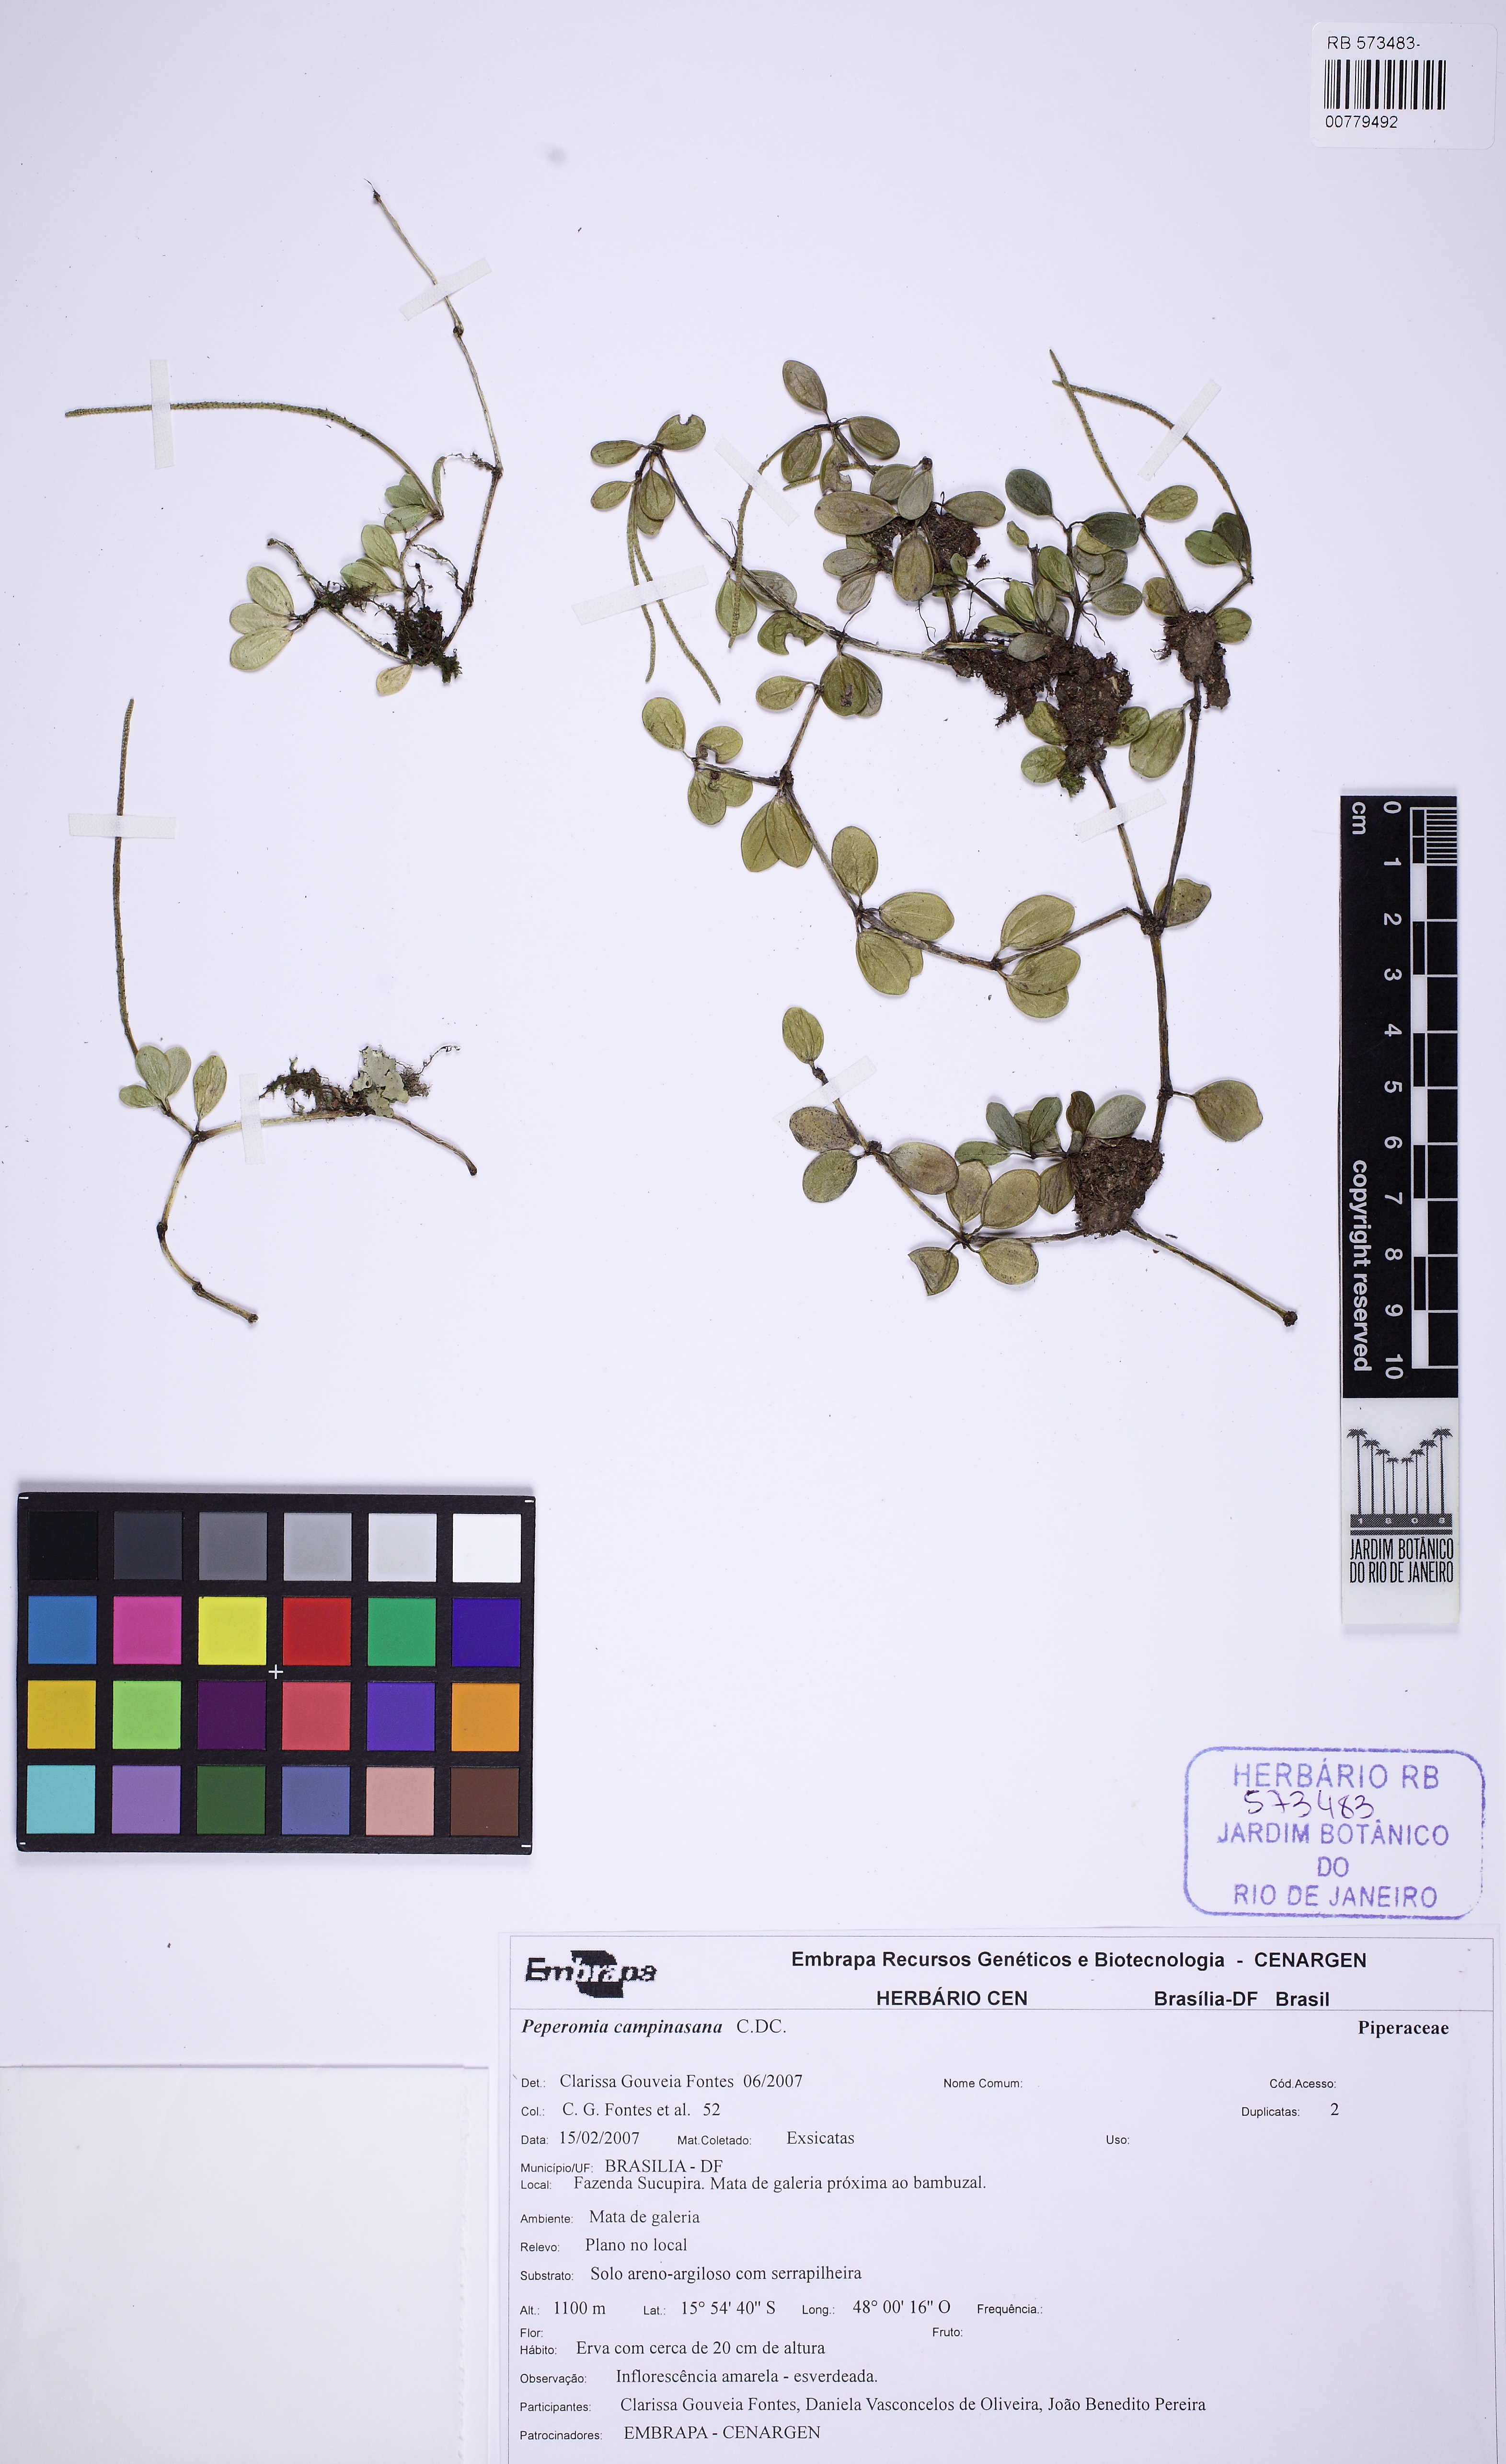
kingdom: Plantae
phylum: Tracheophyta
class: Magnoliopsida
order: Piperales
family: Piperaceae
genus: Peperomia
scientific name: Peperomia campinasana
